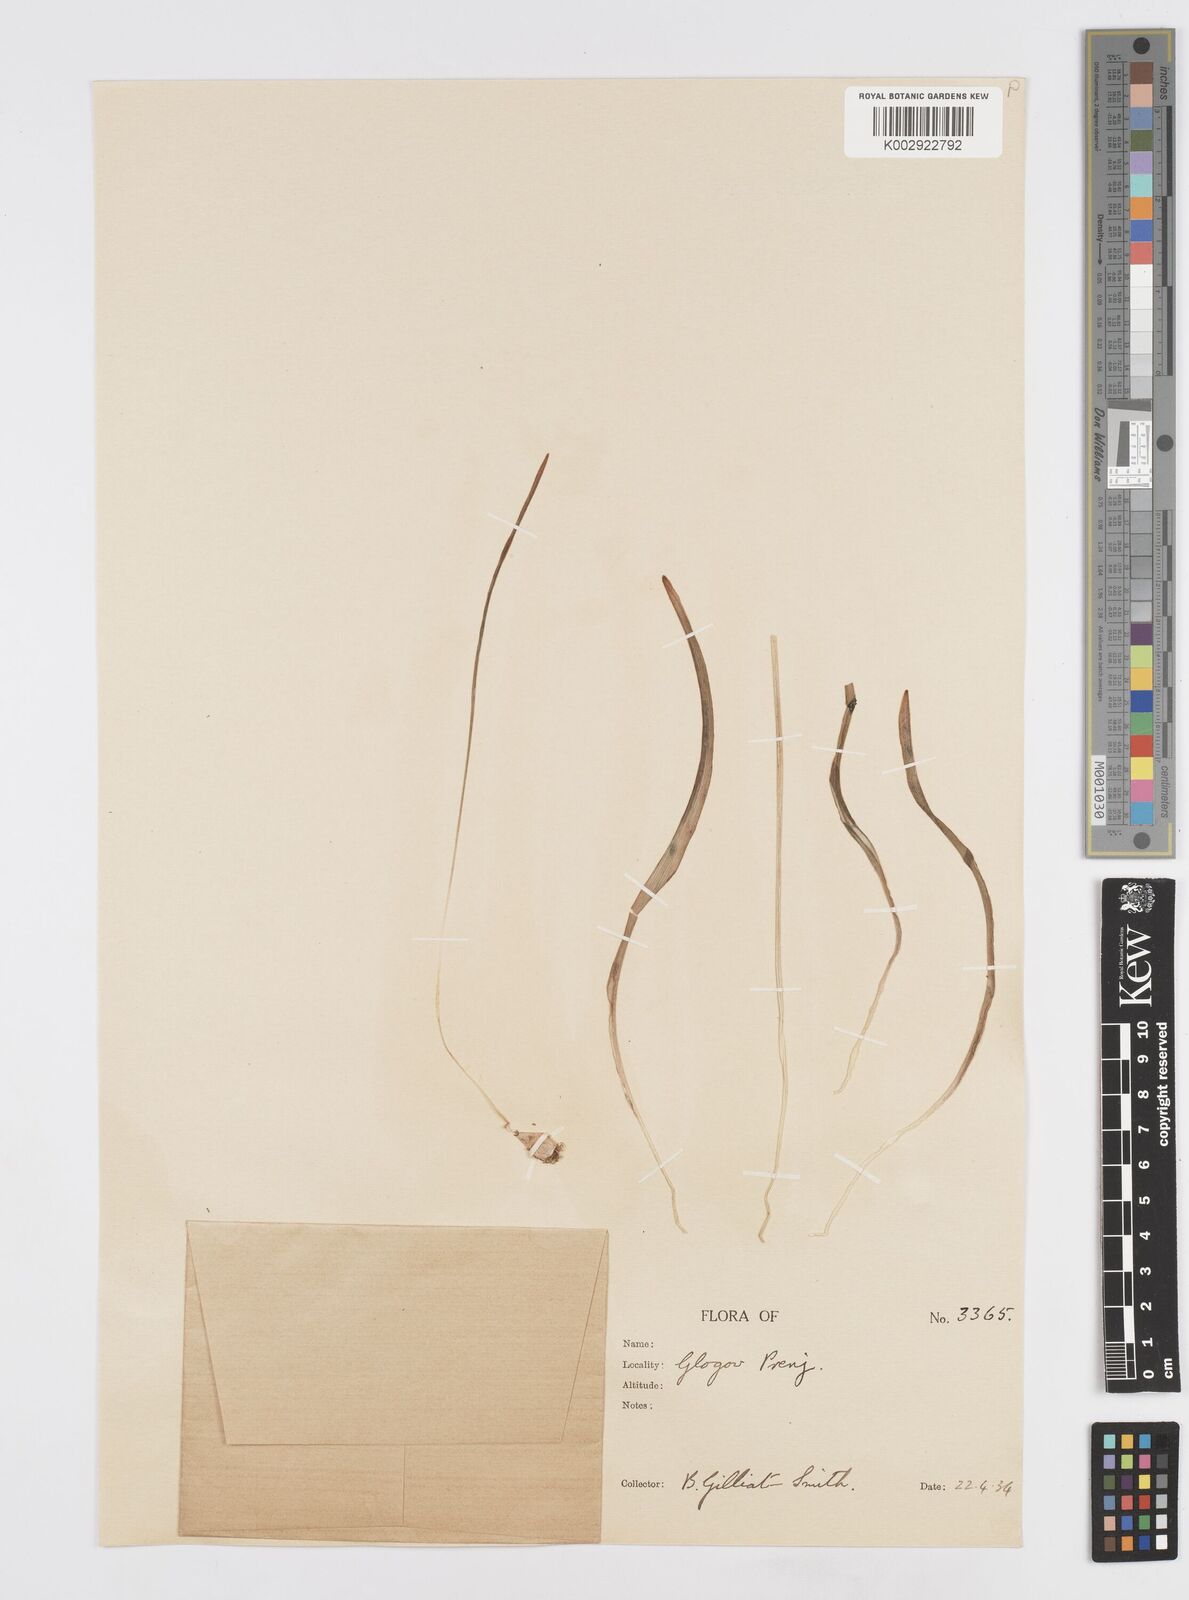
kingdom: Plantae
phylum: Tracheophyta
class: Liliopsida
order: Asparagales
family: Asparagaceae
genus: Muscari
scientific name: Muscari botryoides
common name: Compact grape-hyacinth
